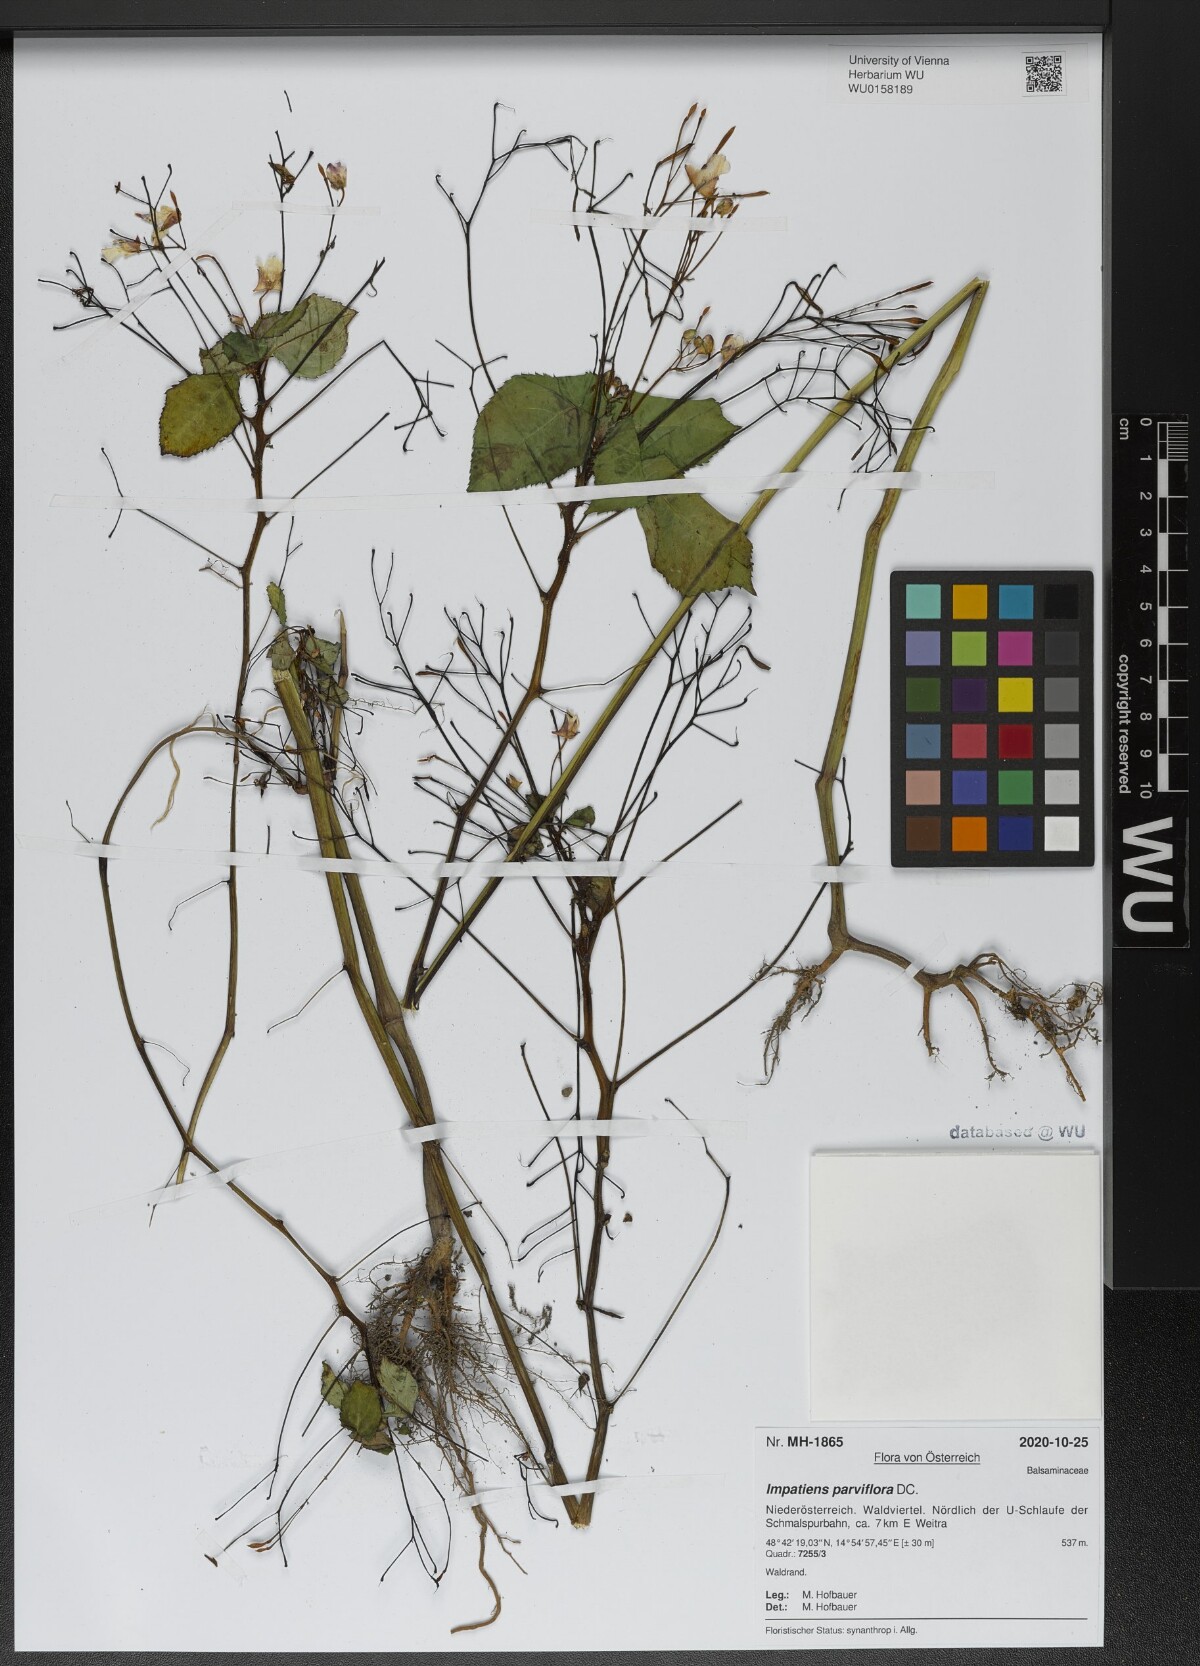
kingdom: Plantae
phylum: Tracheophyta
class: Magnoliopsida
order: Ericales
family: Balsaminaceae
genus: Impatiens
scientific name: Impatiens parviflora
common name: Small balsam
